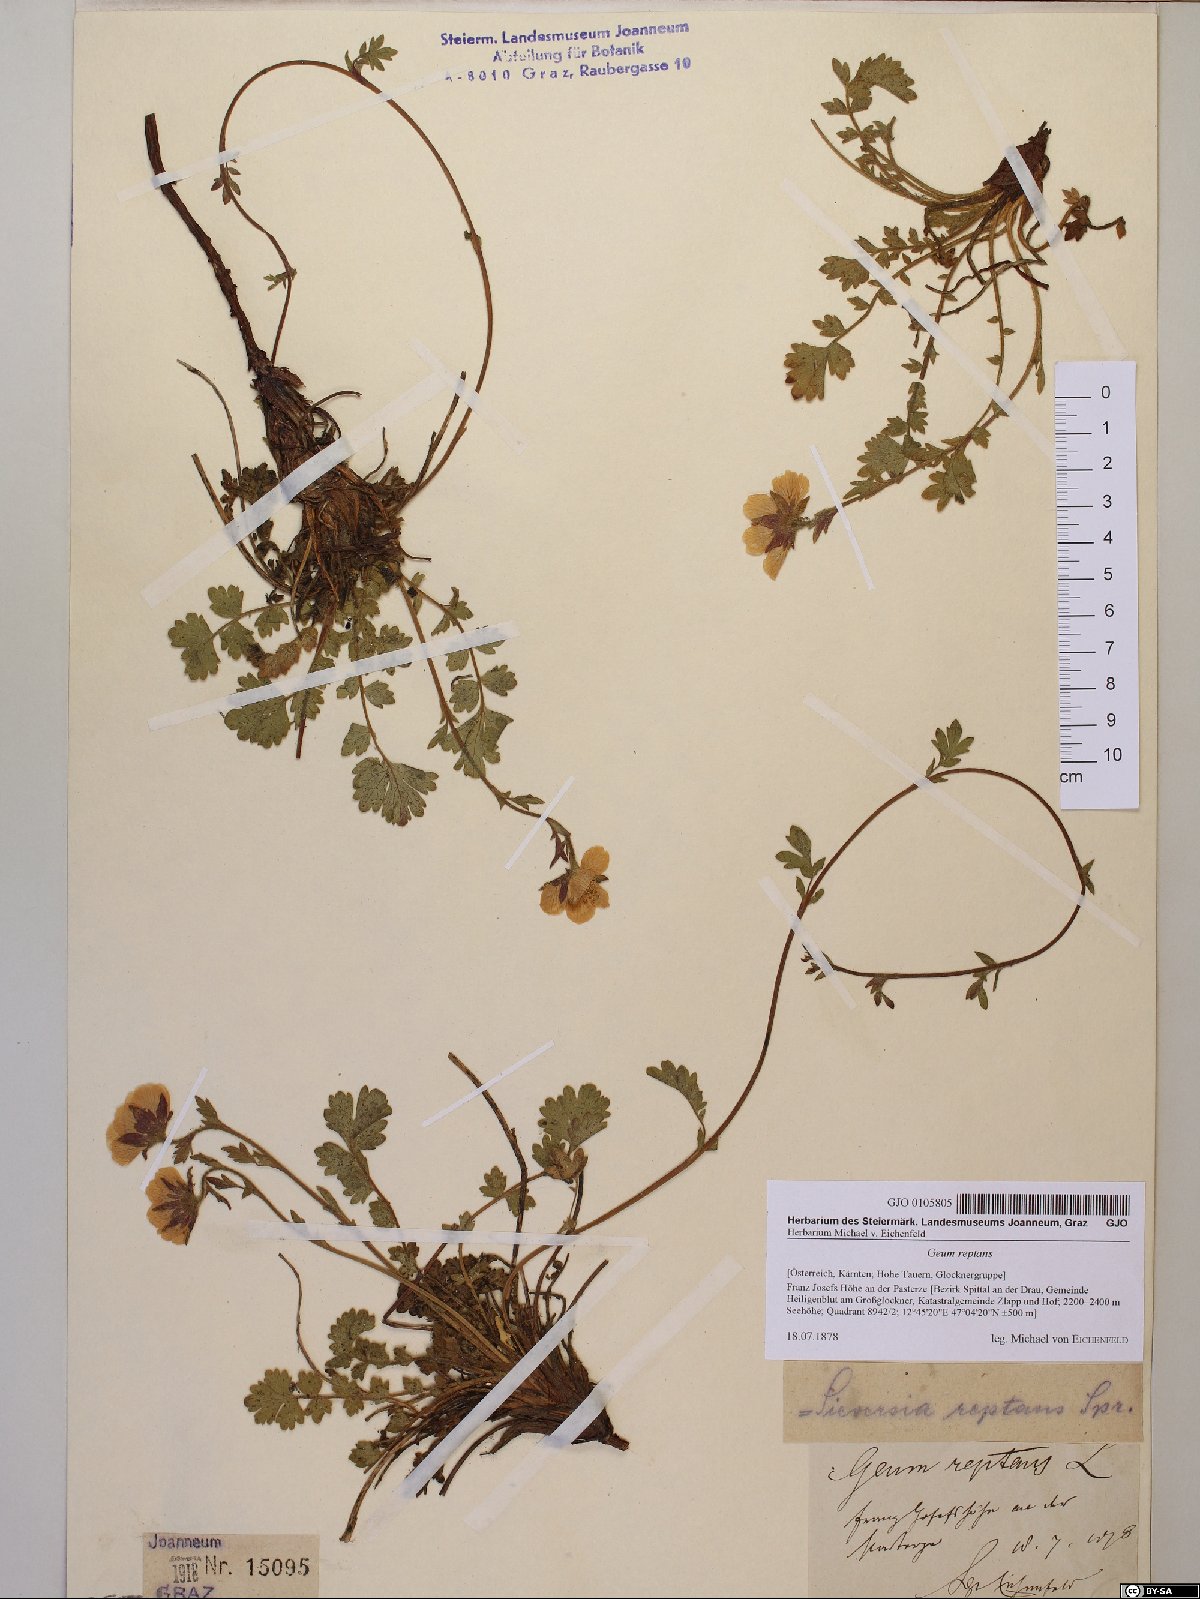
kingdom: Plantae
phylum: Tracheophyta
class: Magnoliopsida
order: Rosales
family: Rosaceae
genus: Geum
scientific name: Geum reptans
